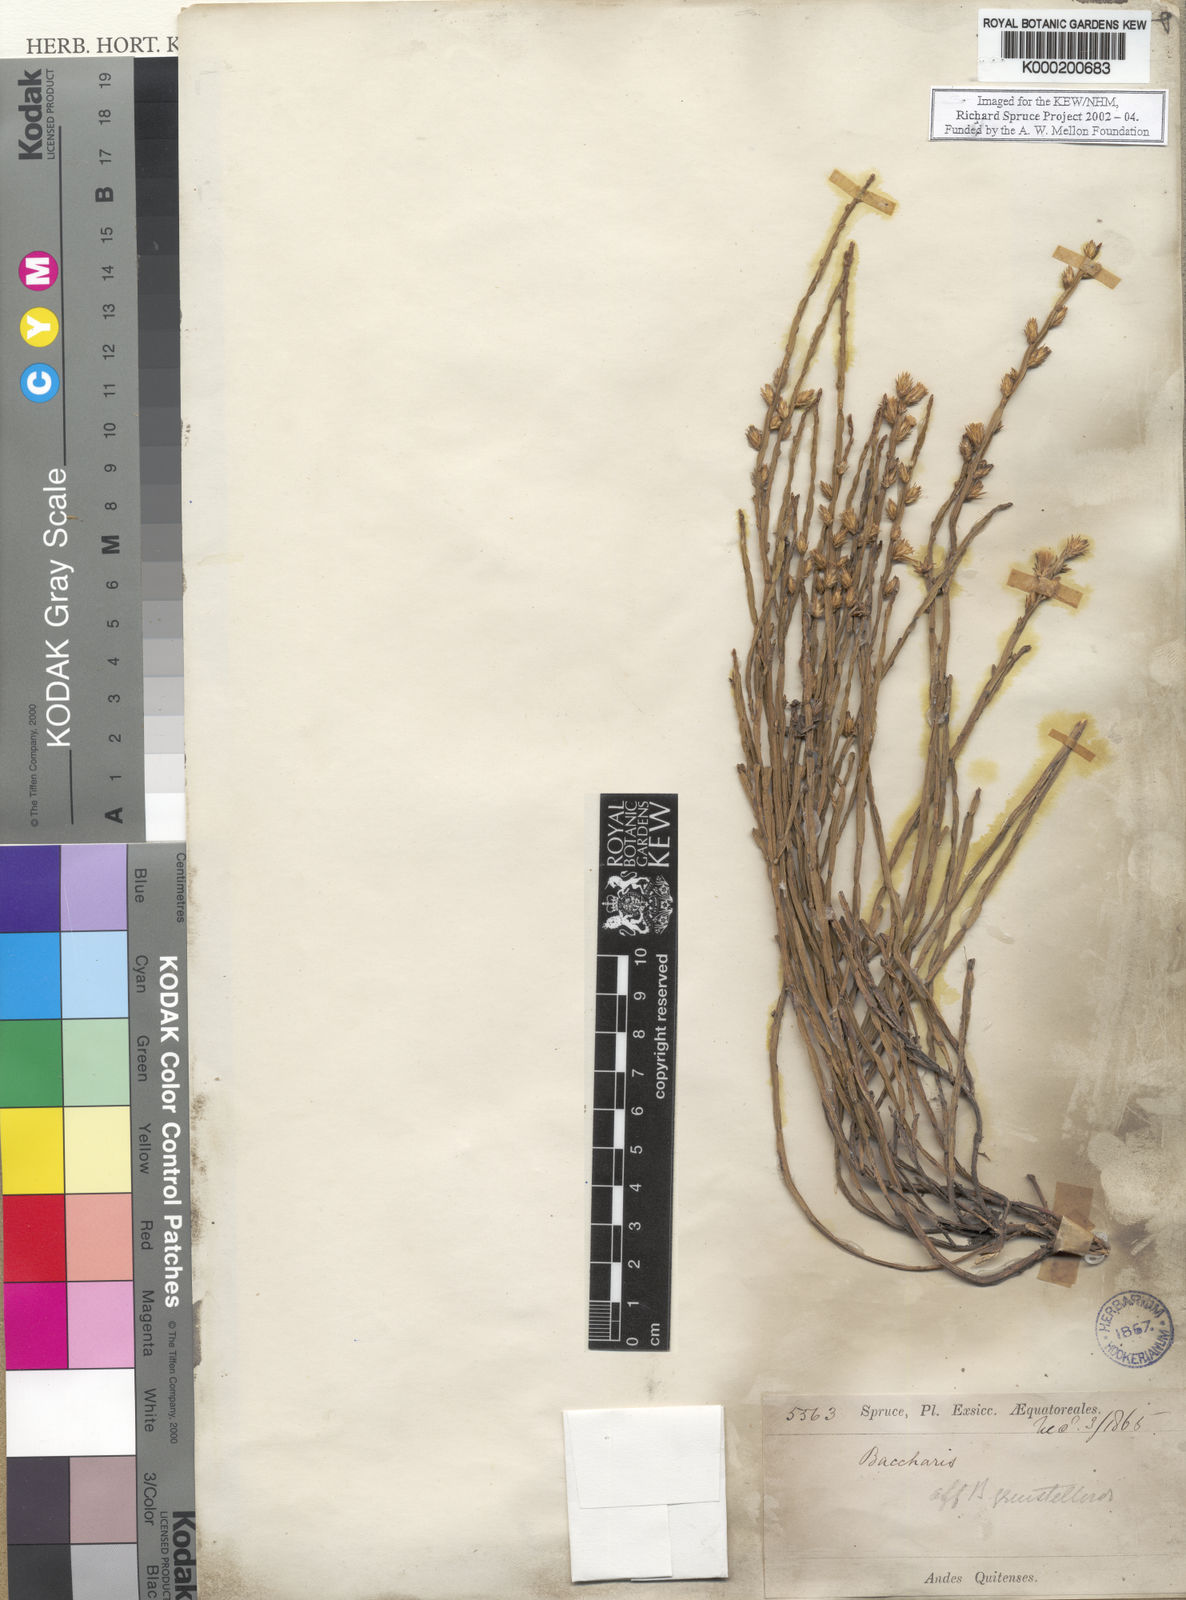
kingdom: Plantae
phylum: Tracheophyta
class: Magnoliopsida
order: Asterales
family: Asteraceae
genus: Baccharis
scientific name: Baccharis genistelloides
